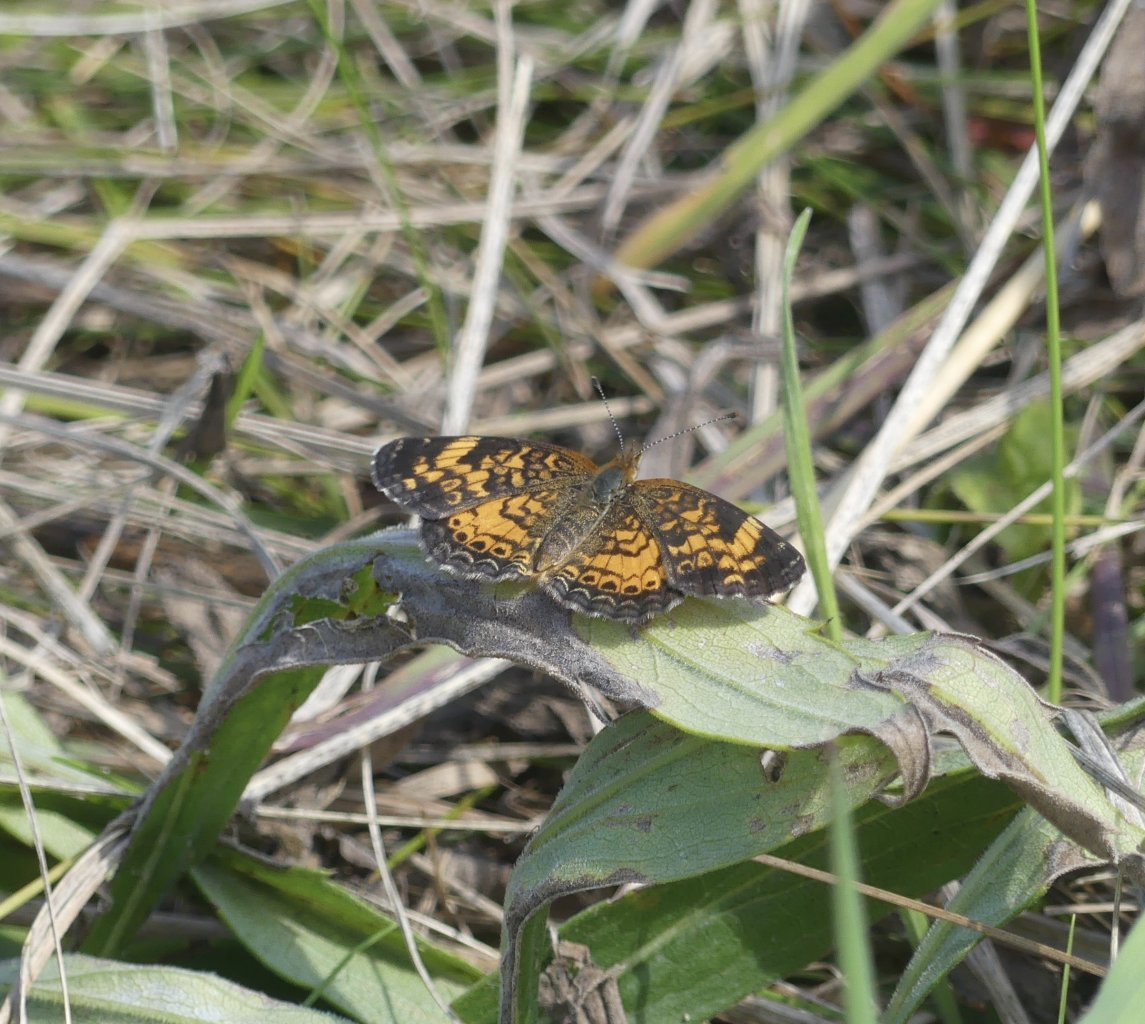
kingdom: Animalia
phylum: Arthropoda
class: Insecta
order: Lepidoptera
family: Nymphalidae
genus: Phyciodes
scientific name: Phyciodes tharos
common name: Pearl Crescent
